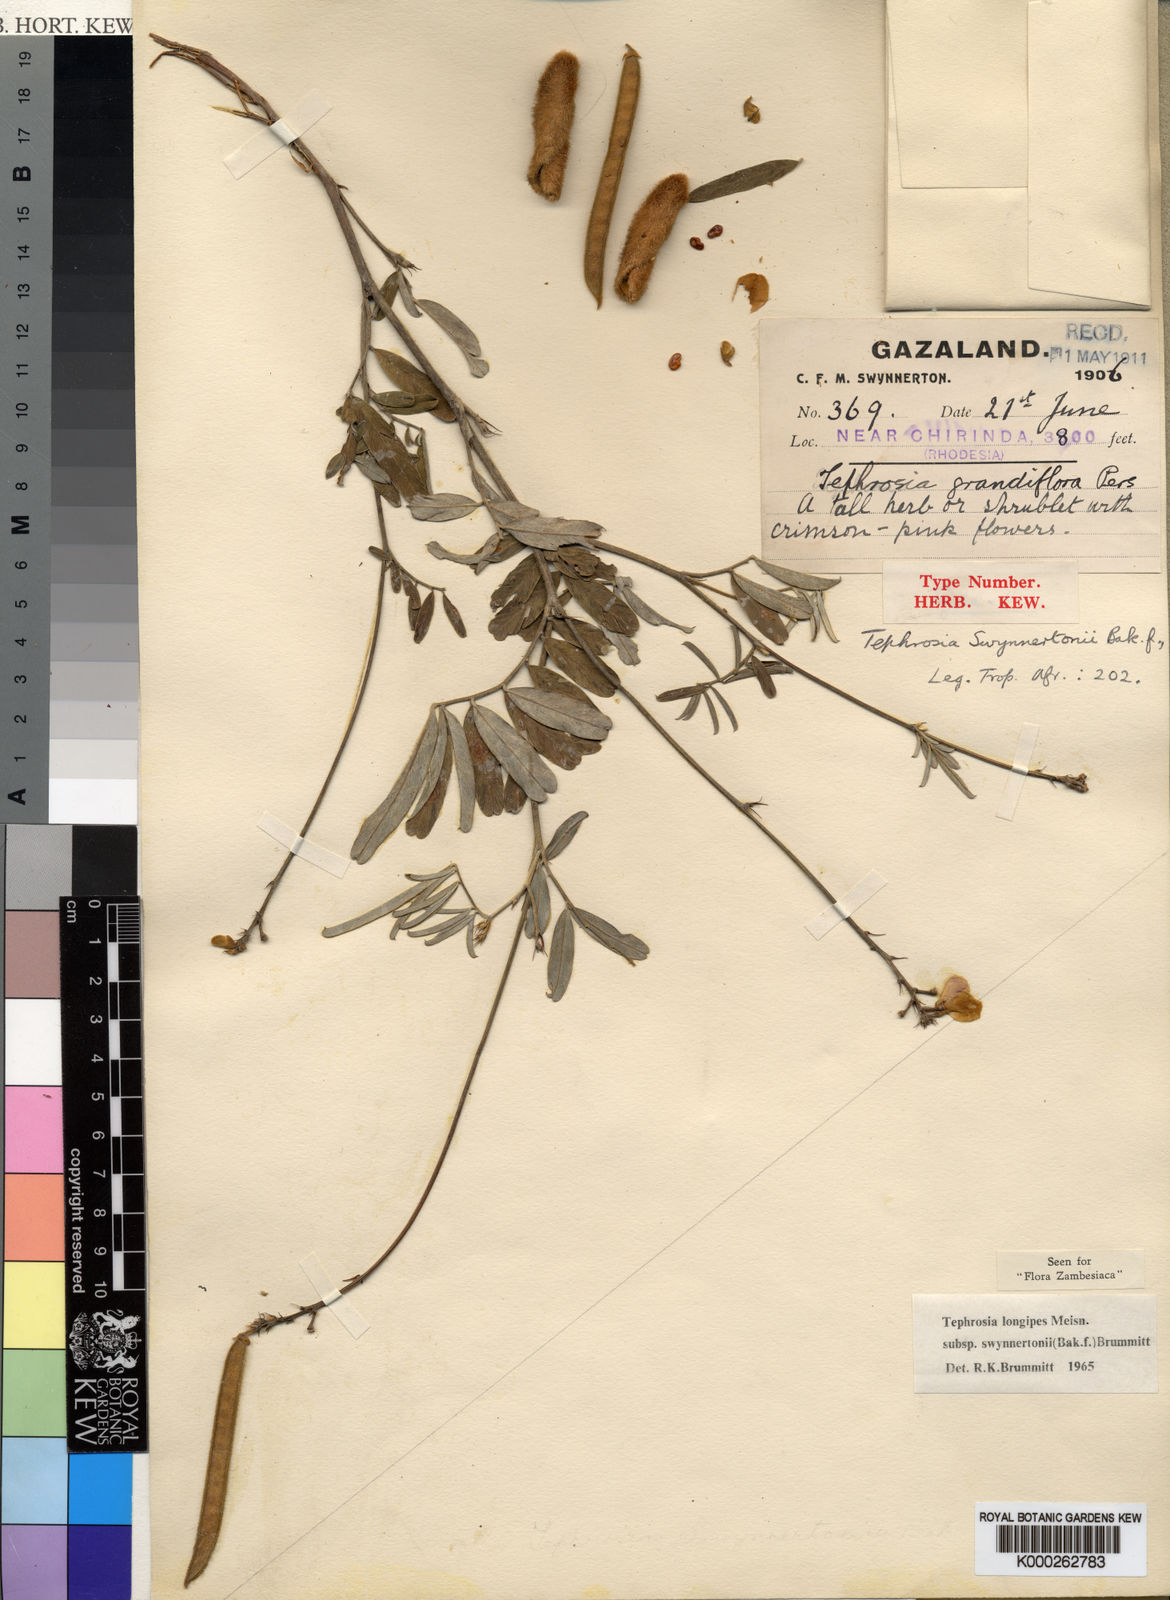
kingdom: Plantae
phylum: Tracheophyta
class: Magnoliopsida
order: Fabales
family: Fabaceae
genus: Tephrosia
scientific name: Tephrosia longipes
